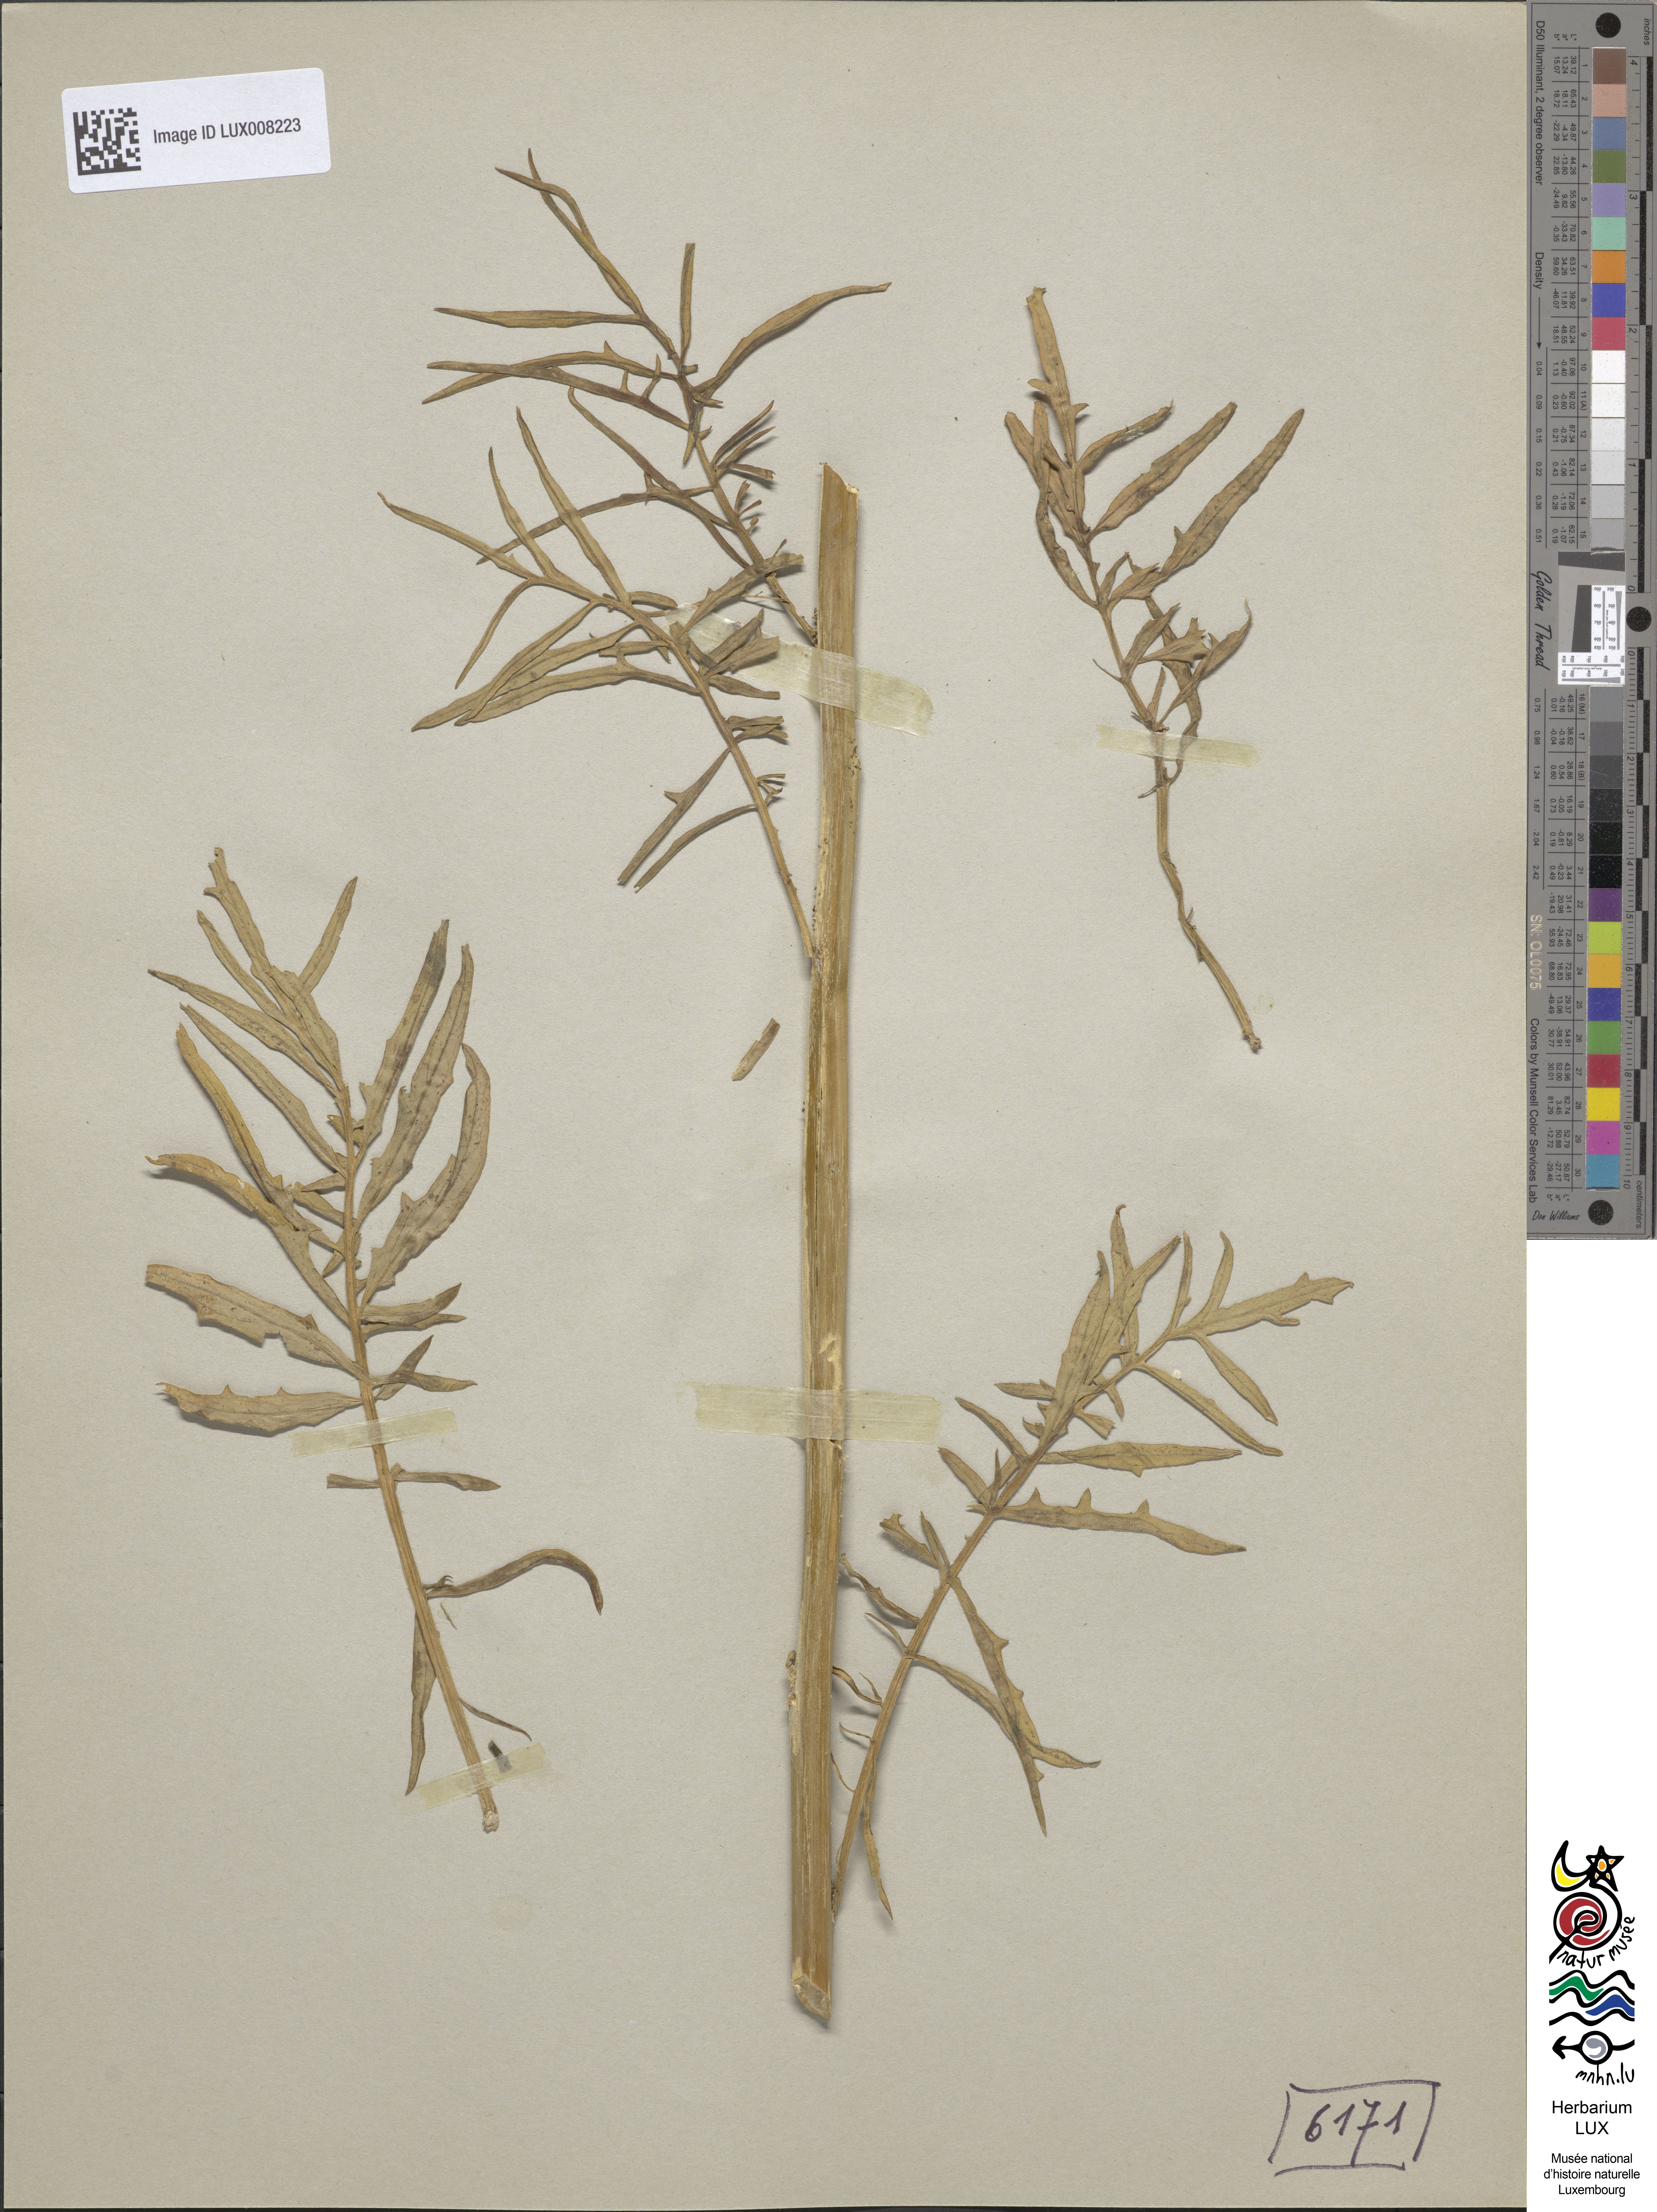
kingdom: Plantae
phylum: Tracheophyta
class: Magnoliopsida
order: Brassicales
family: Brassicaceae
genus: Sisymbrium
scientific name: Sisymbrium altissimum
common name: Tall rocket
